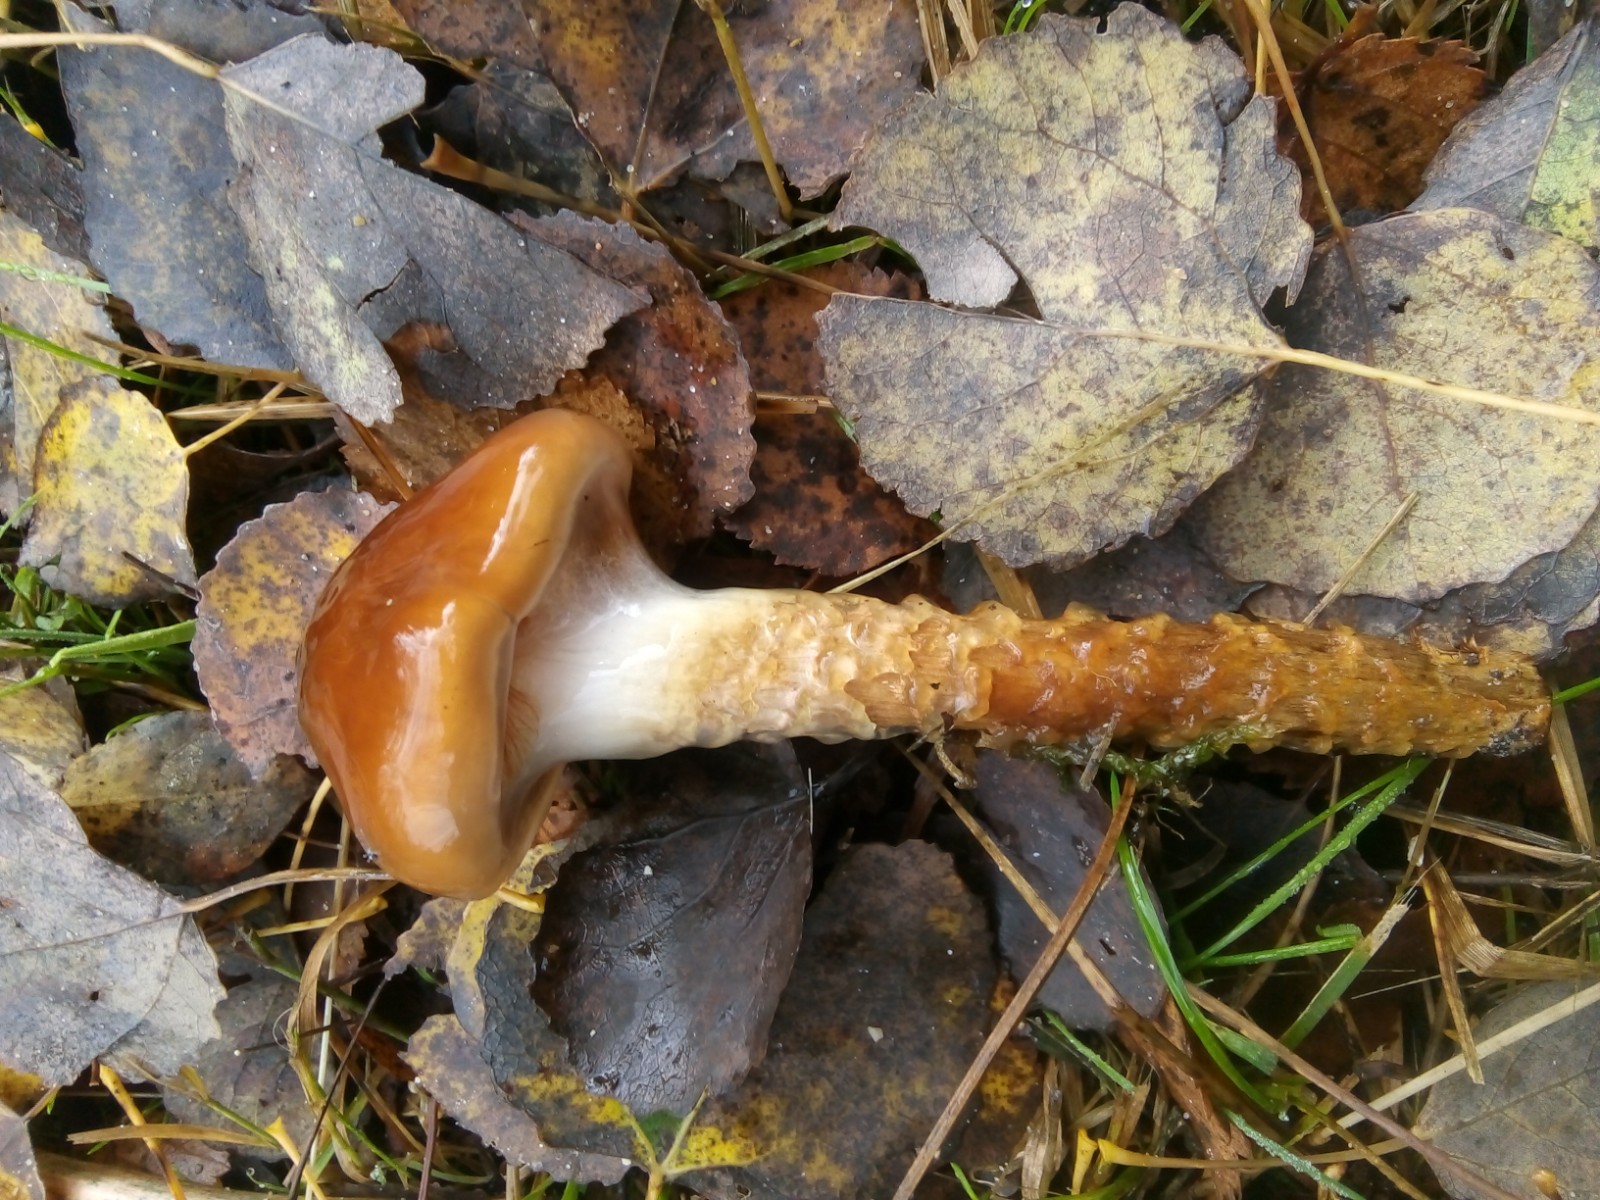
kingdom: Fungi
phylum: Basidiomycota
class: Agaricomycetes
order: Agaricales
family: Cortinariaceae
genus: Cortinarius
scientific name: Cortinarius trivialis
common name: brunslimet slørhat
